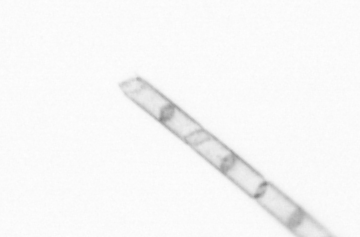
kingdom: Chromista
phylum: Ochrophyta
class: Bacillariophyceae
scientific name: Bacillariophyceae
